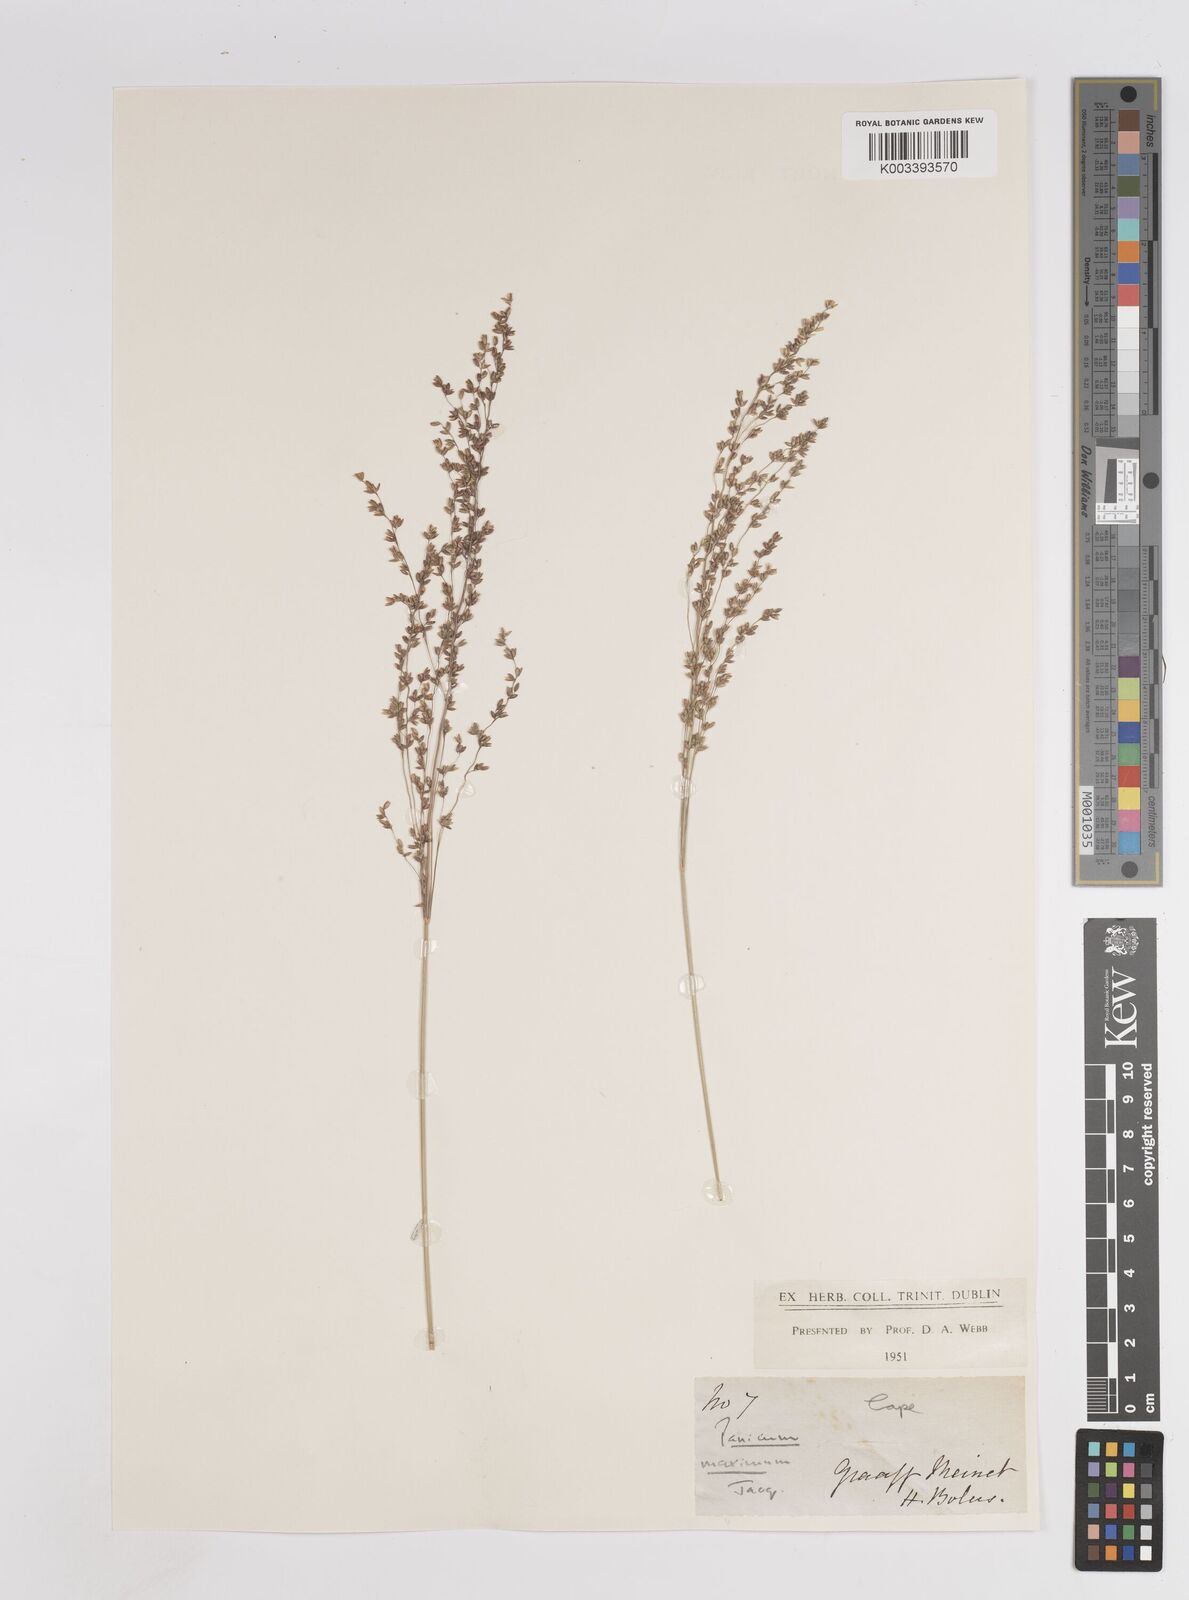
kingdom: Plantae
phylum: Tracheophyta
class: Liliopsida
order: Poales
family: Poaceae
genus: Megathyrsus
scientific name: Megathyrsus maximus
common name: Guineagrass
